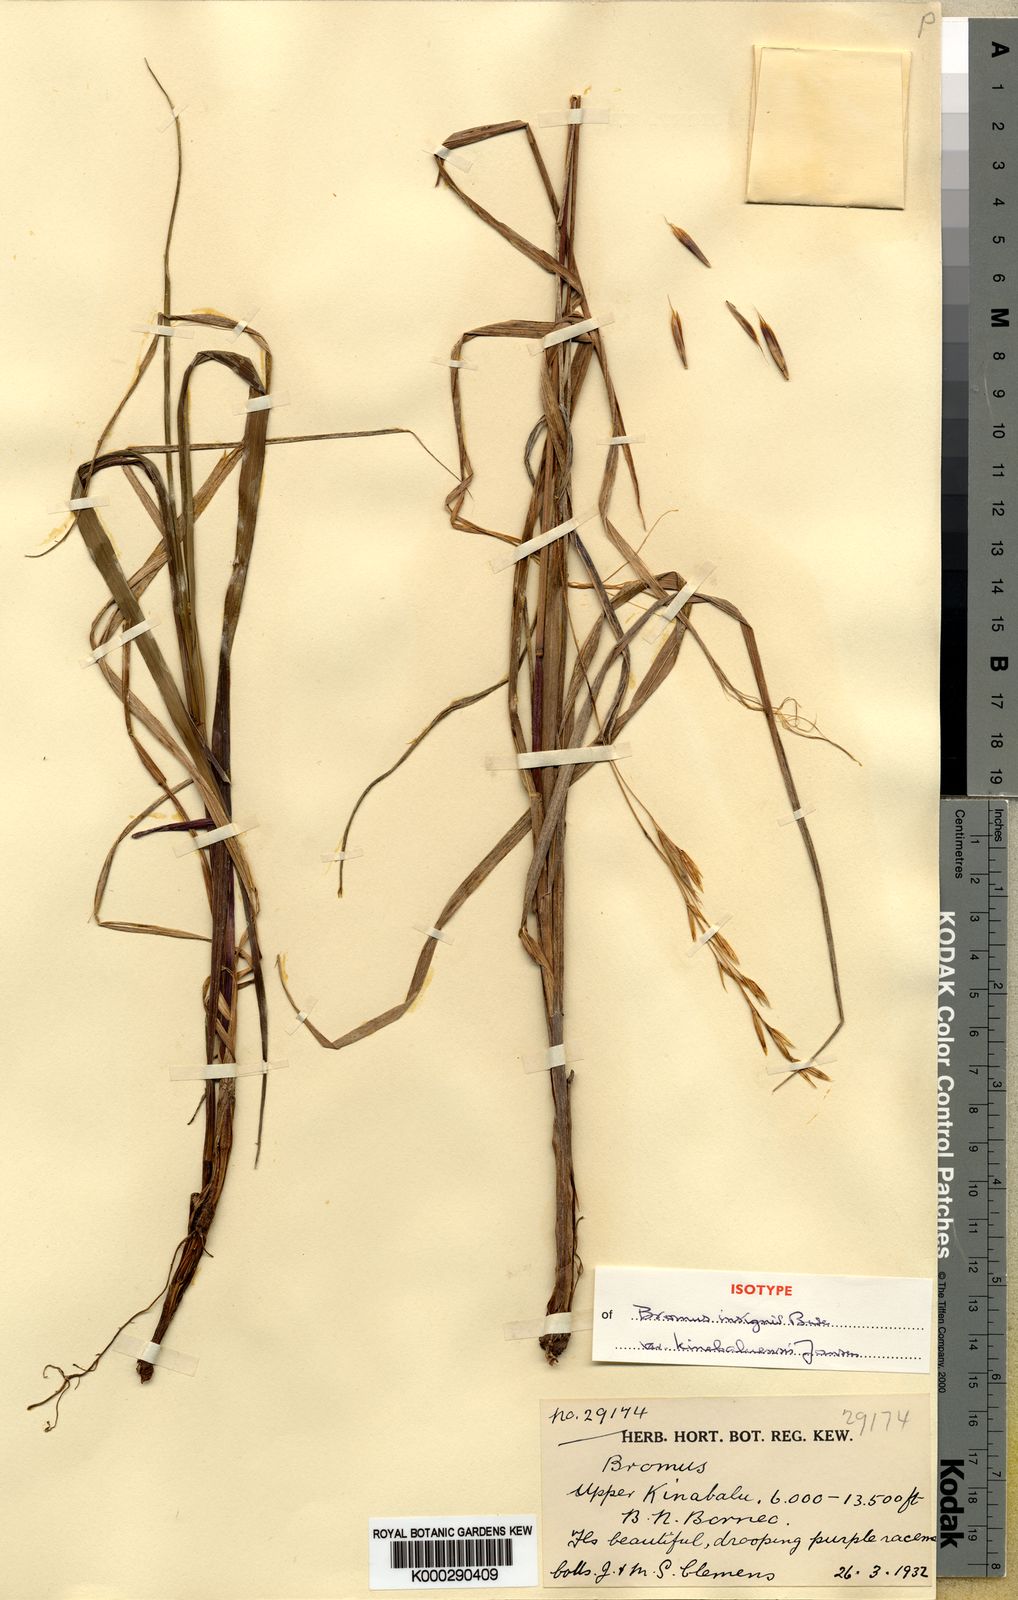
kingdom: Plantae
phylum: Tracheophyta
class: Liliopsida
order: Poales
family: Poaceae
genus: Bromus
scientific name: Bromus formosanus
